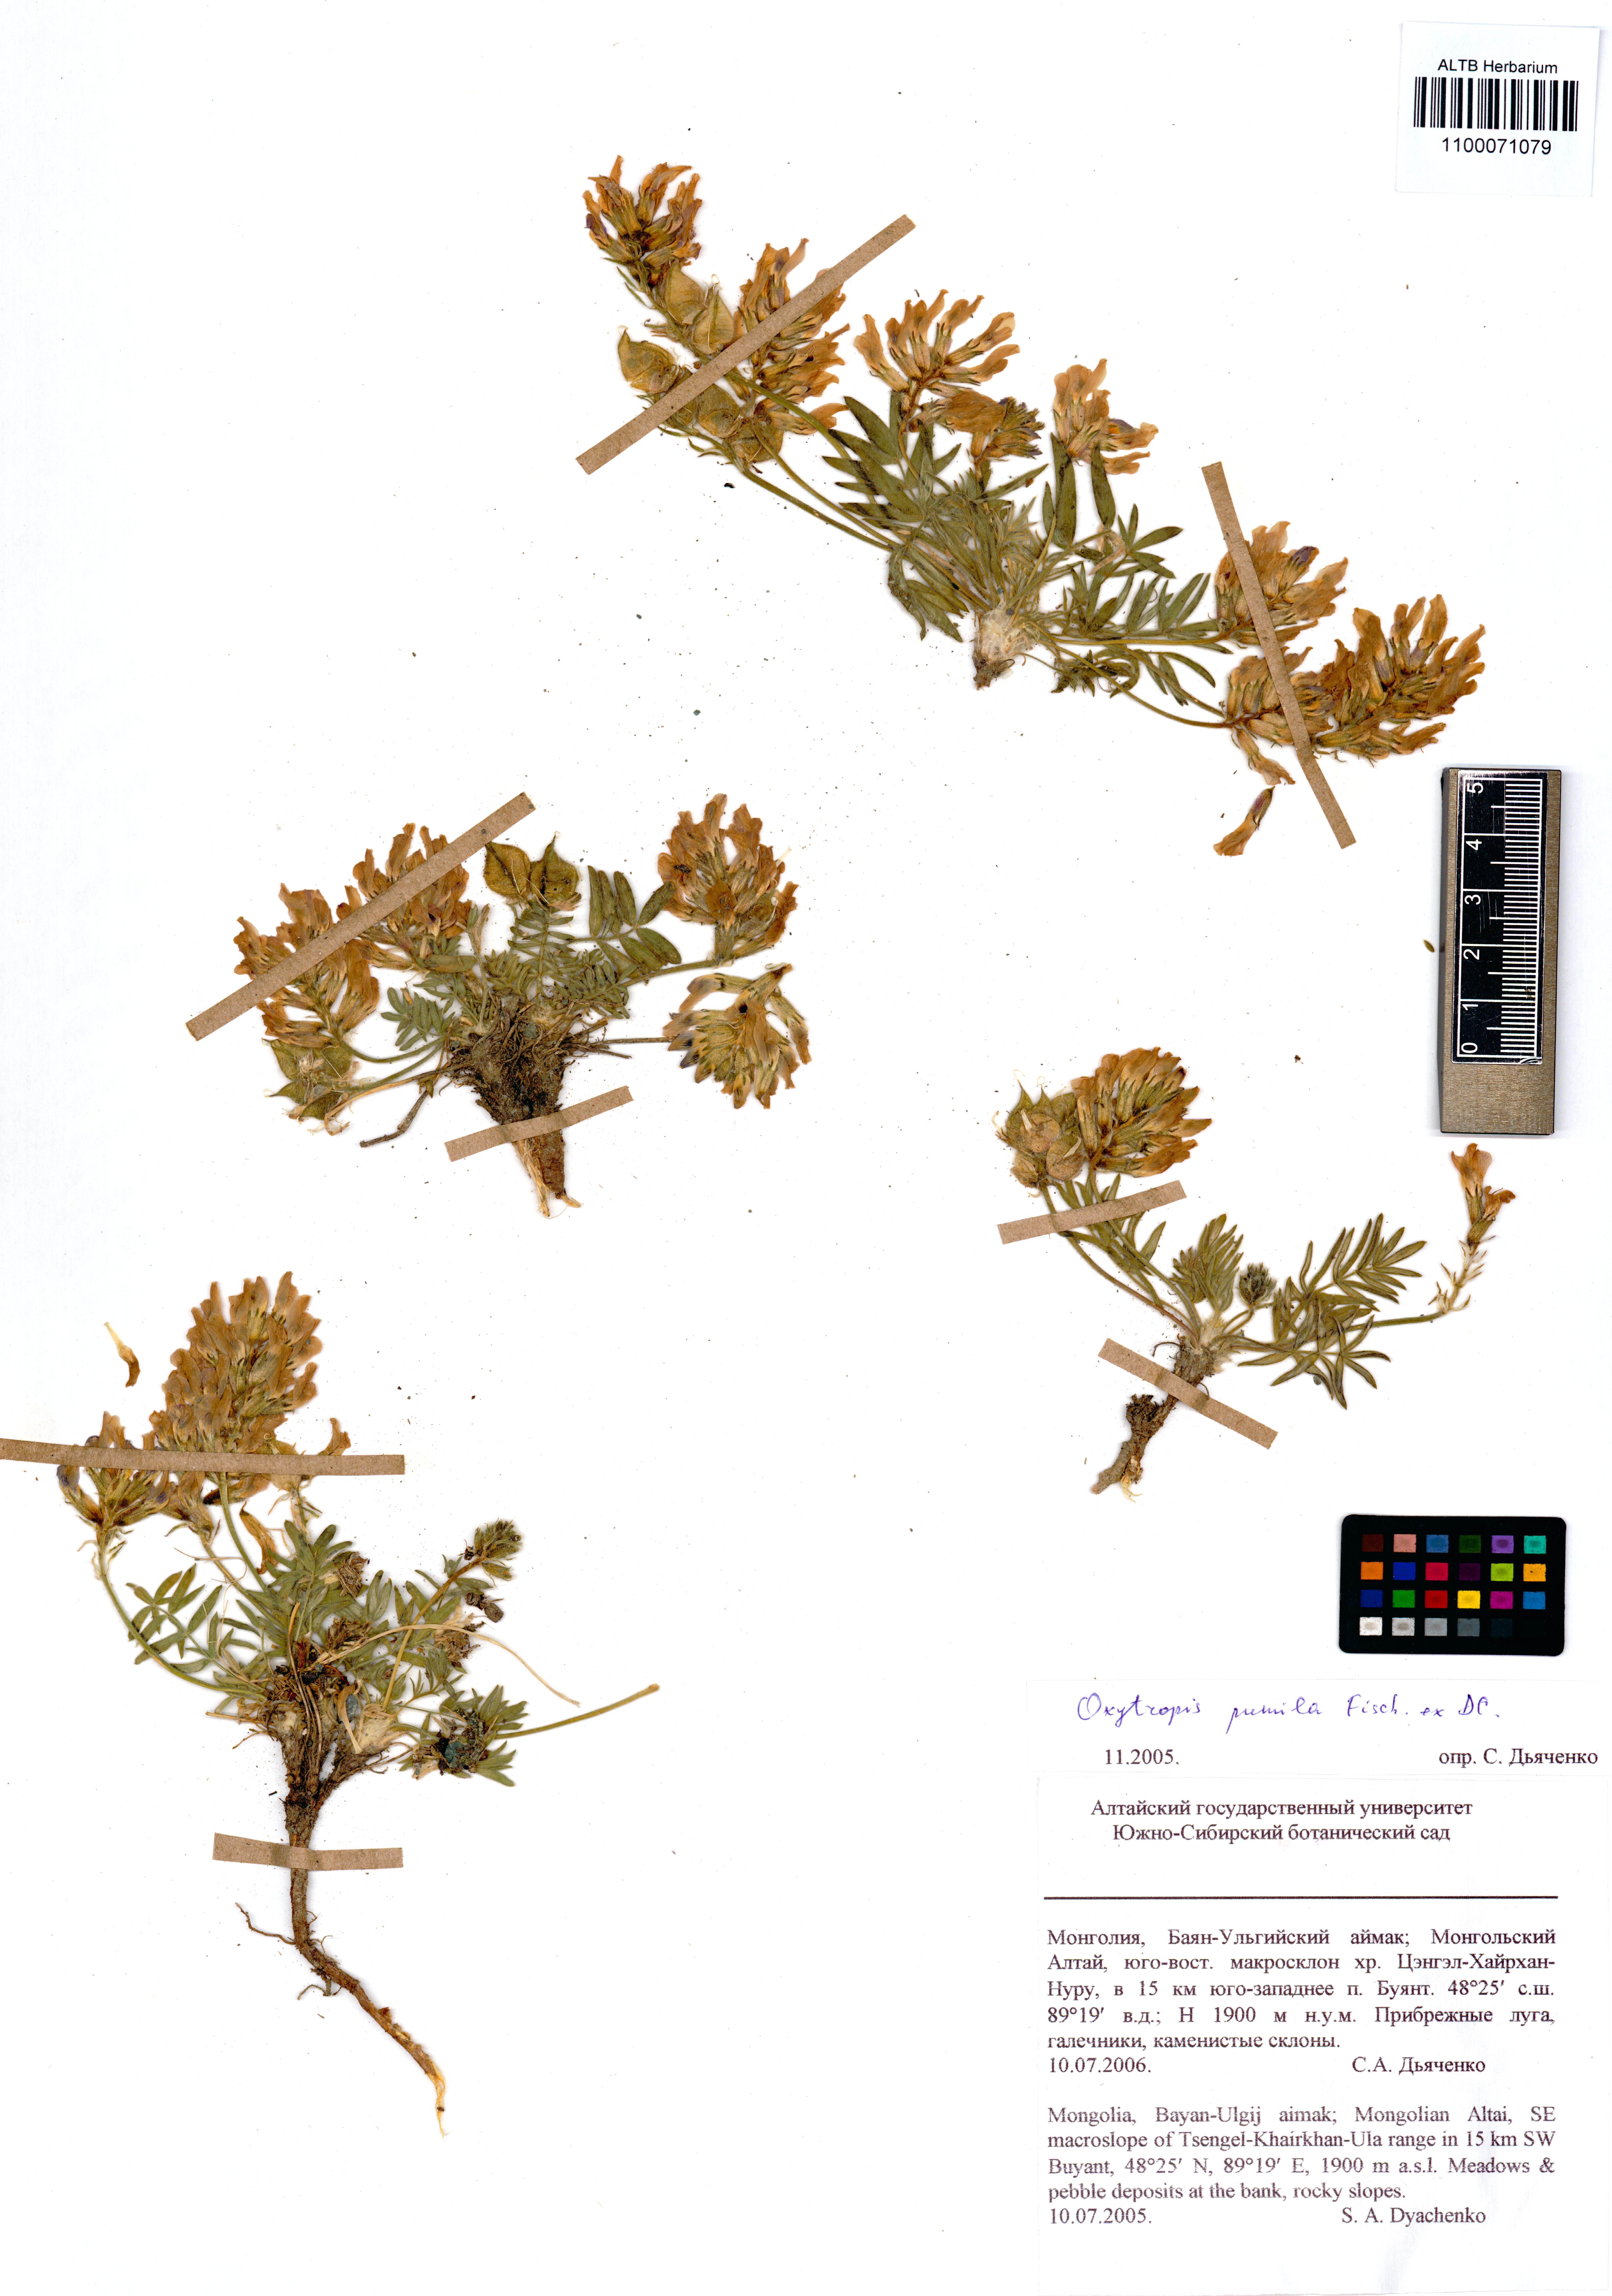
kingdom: Plantae
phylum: Tracheophyta
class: Magnoliopsida
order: Fabales
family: Fabaceae
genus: Oxytropis
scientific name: Oxytropis pumila
